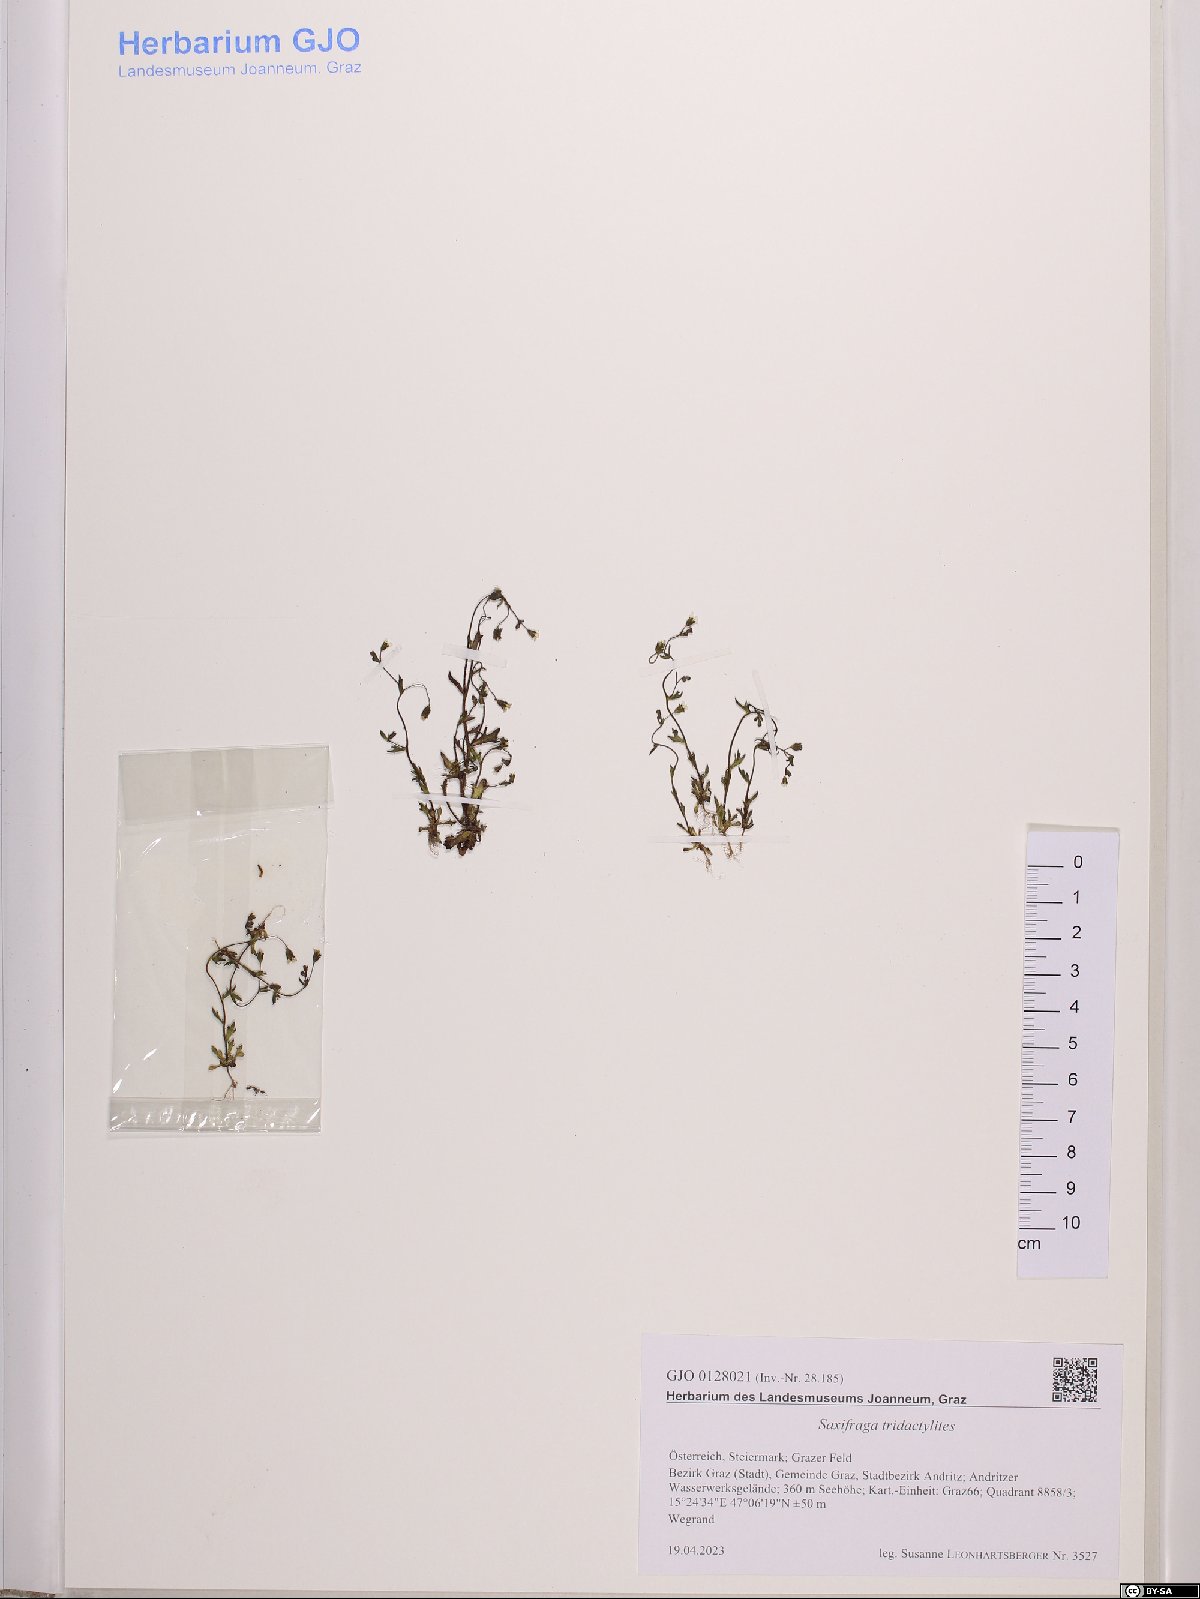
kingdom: Plantae
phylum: Tracheophyta
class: Magnoliopsida
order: Saxifragales
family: Saxifragaceae
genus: Saxifraga
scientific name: Saxifraga tridactylites
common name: Rue-leaved saxifrage
